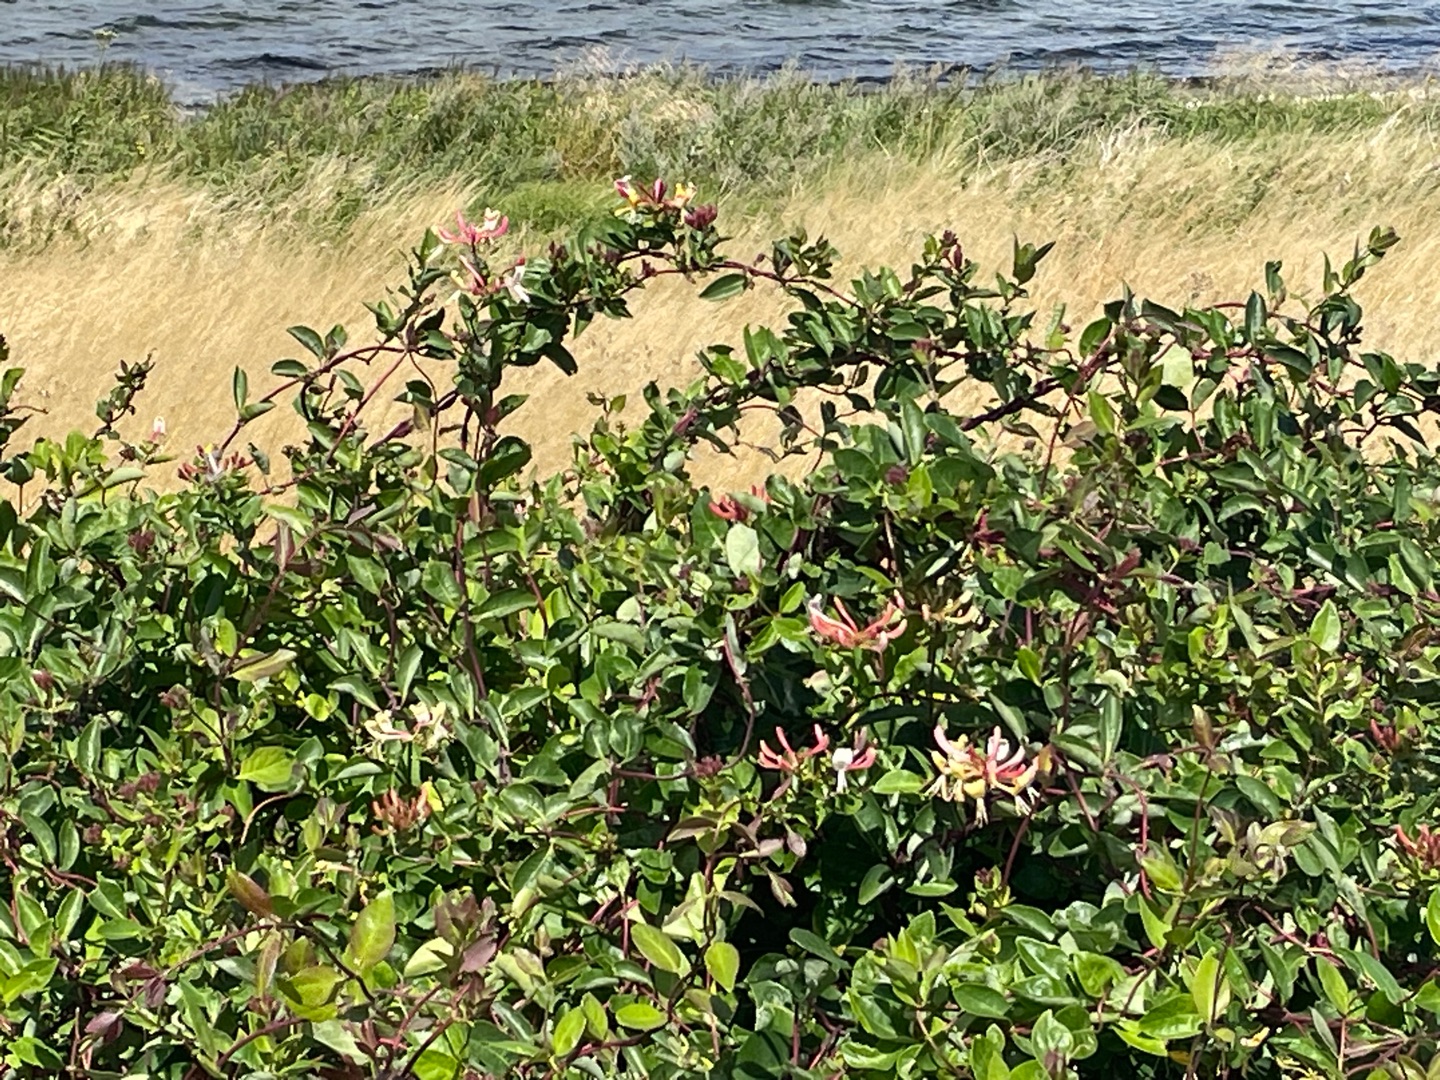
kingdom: Plantae
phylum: Tracheophyta
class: Magnoliopsida
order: Dipsacales
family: Caprifoliaceae
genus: Lonicera
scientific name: Lonicera periclymenum
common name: Almindelig gedeblad
